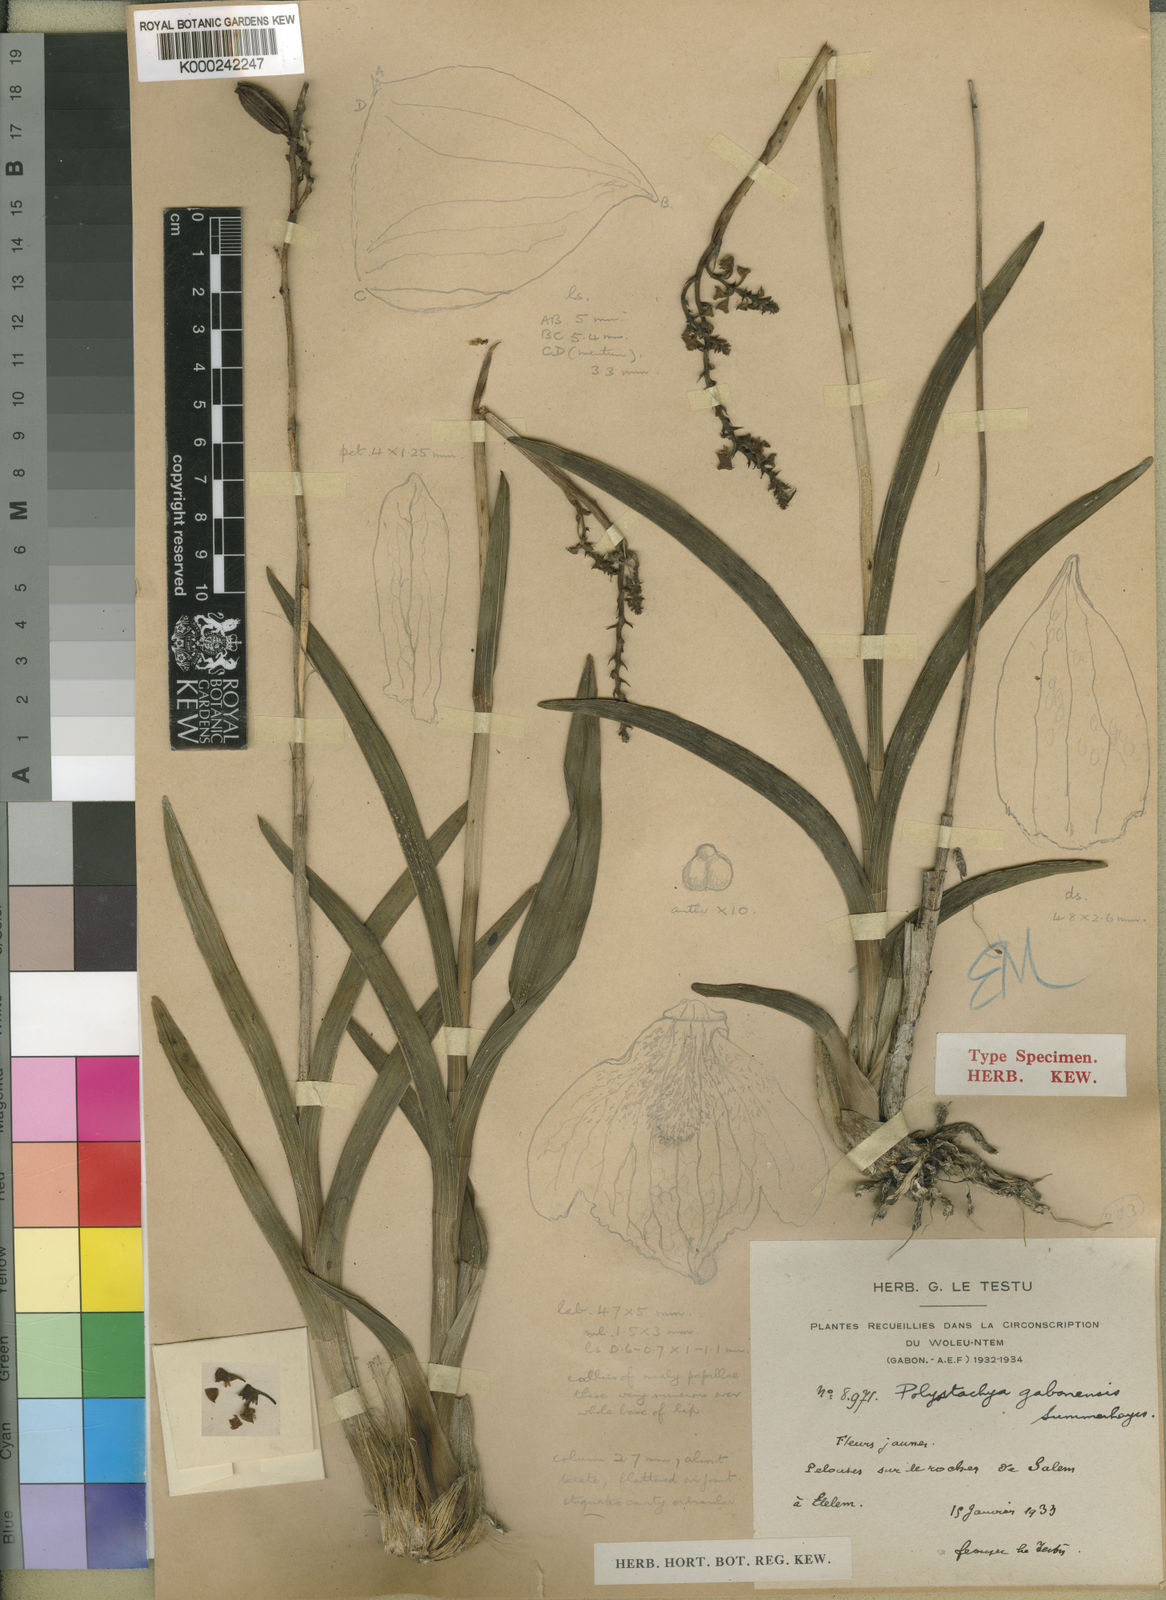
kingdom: Plantae
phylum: Tracheophyta
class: Liliopsida
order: Asparagales
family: Orchidaceae
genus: Polystachya
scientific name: Polystachya odorata
